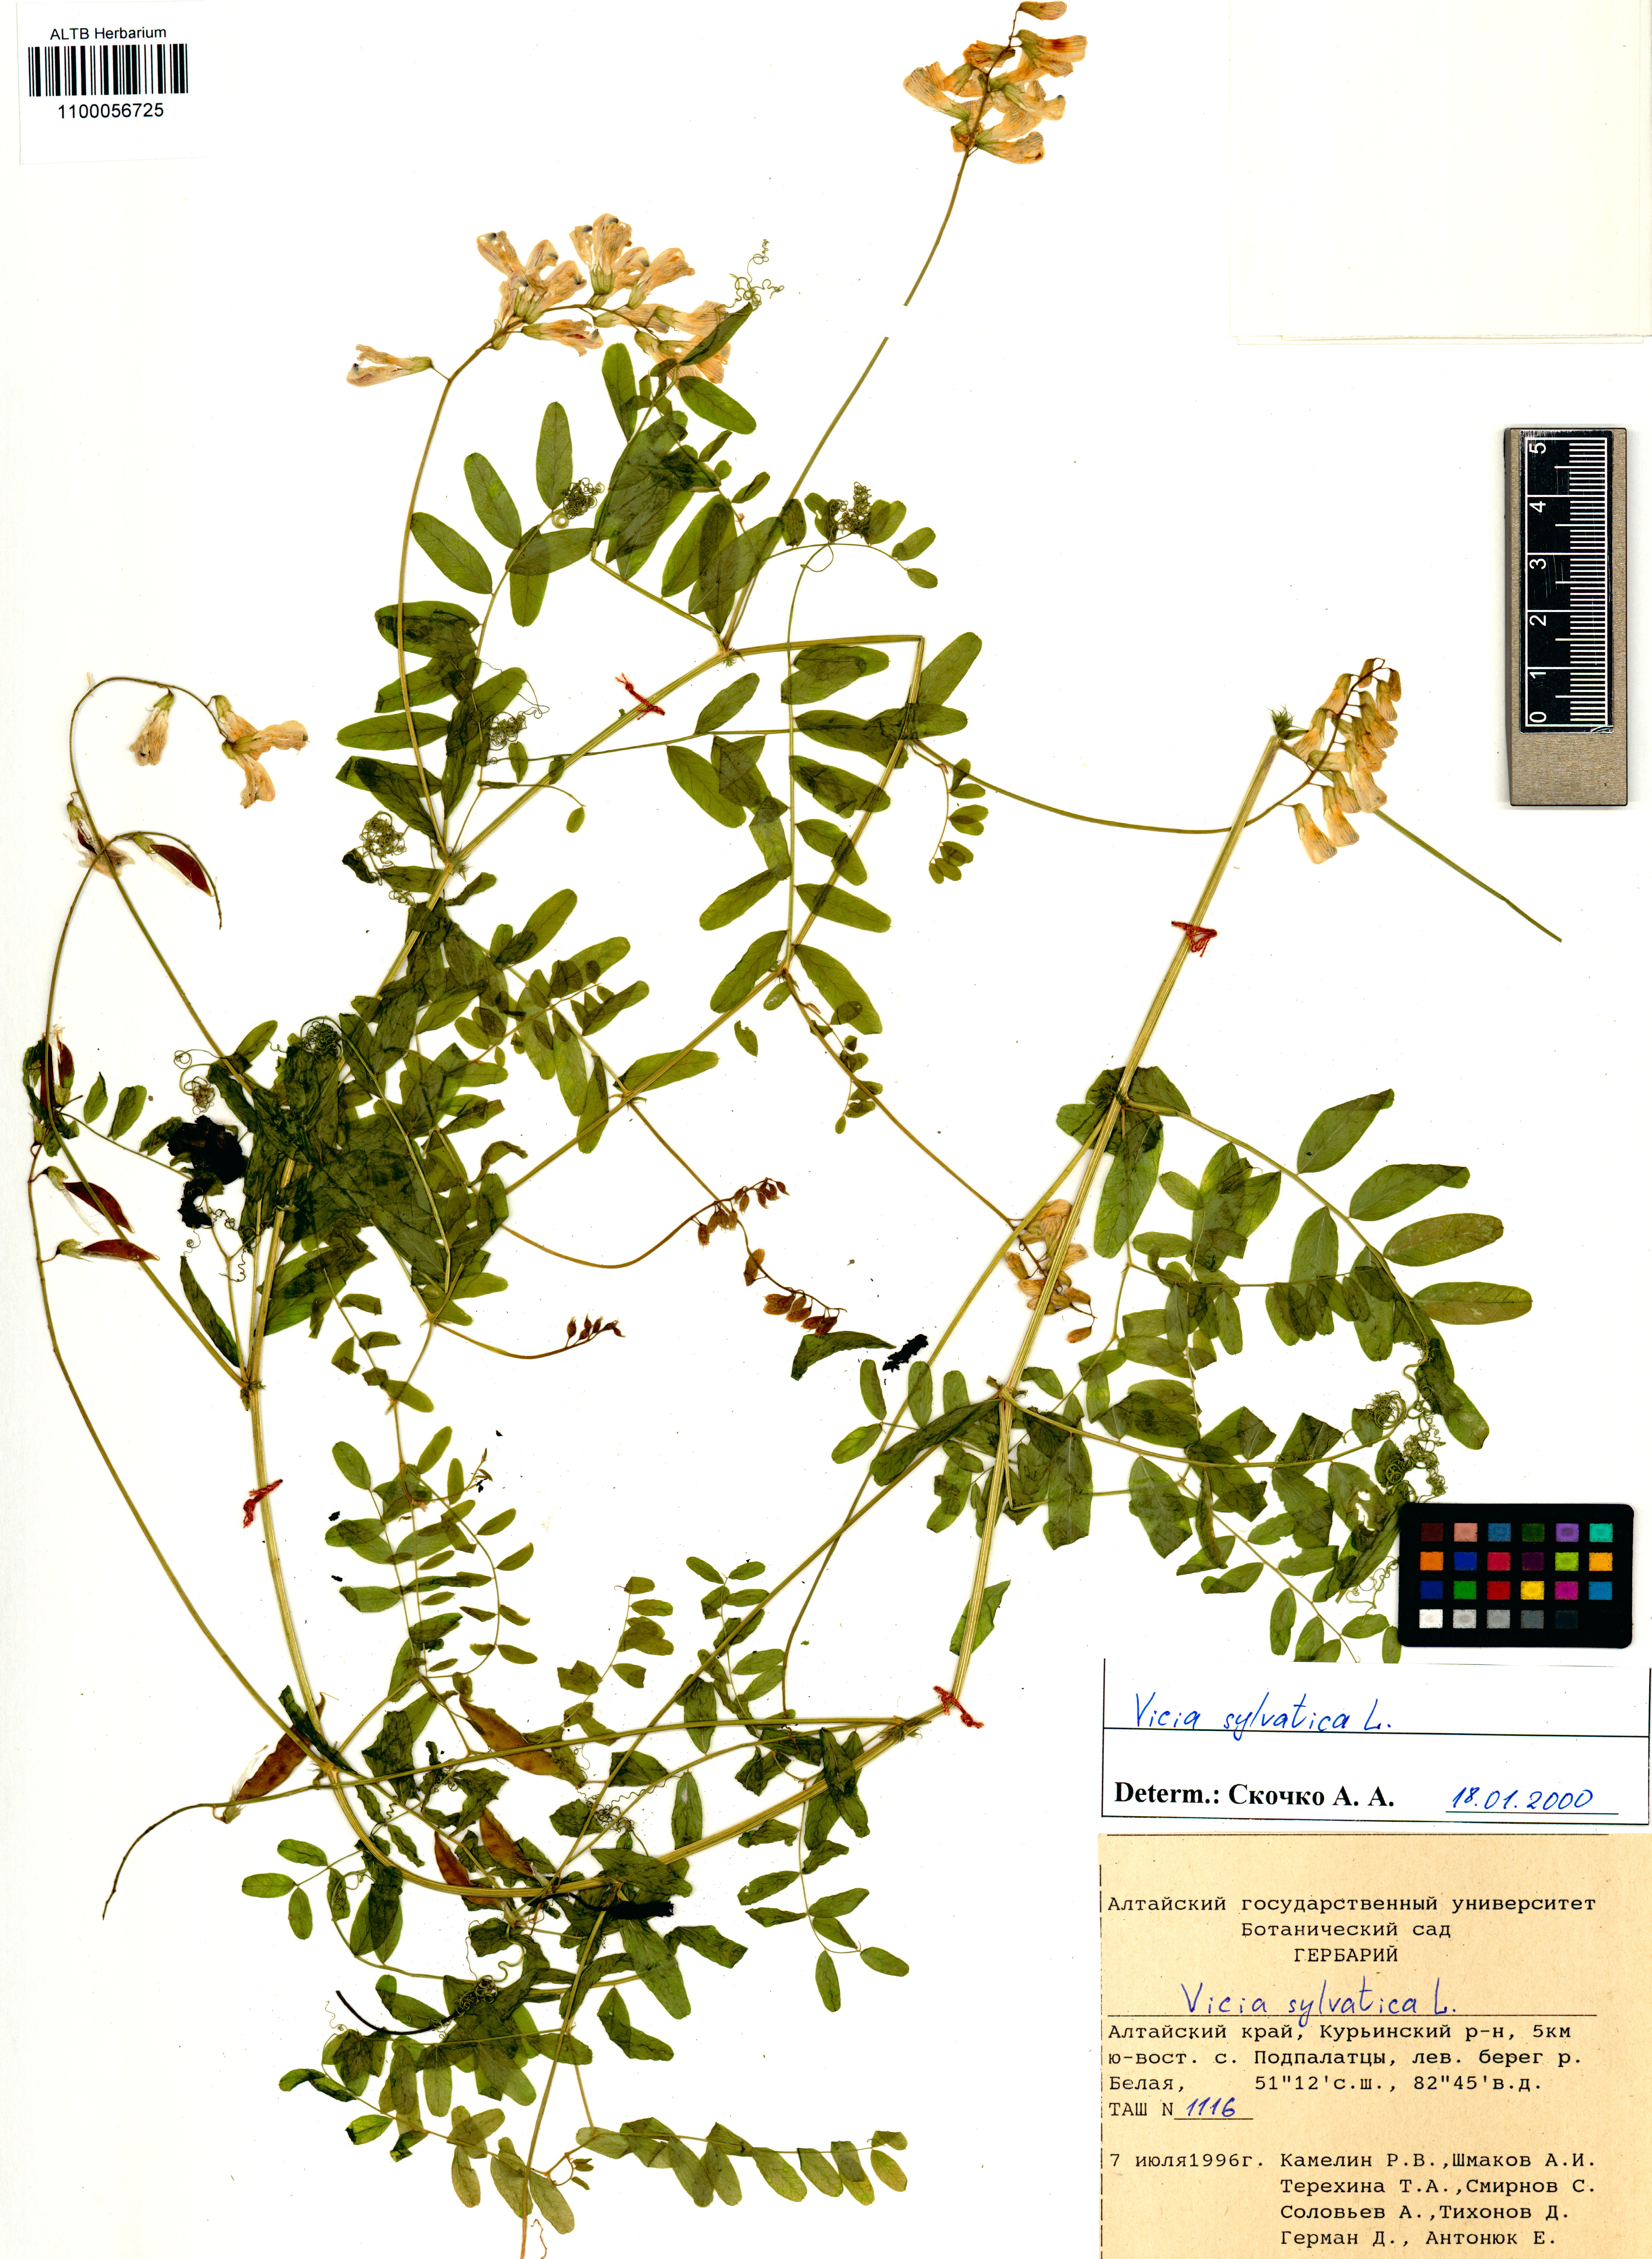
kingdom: Plantae
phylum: Tracheophyta
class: Magnoliopsida
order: Fabales
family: Fabaceae
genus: Vicia
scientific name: Vicia sylvatica
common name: Wood vetch
